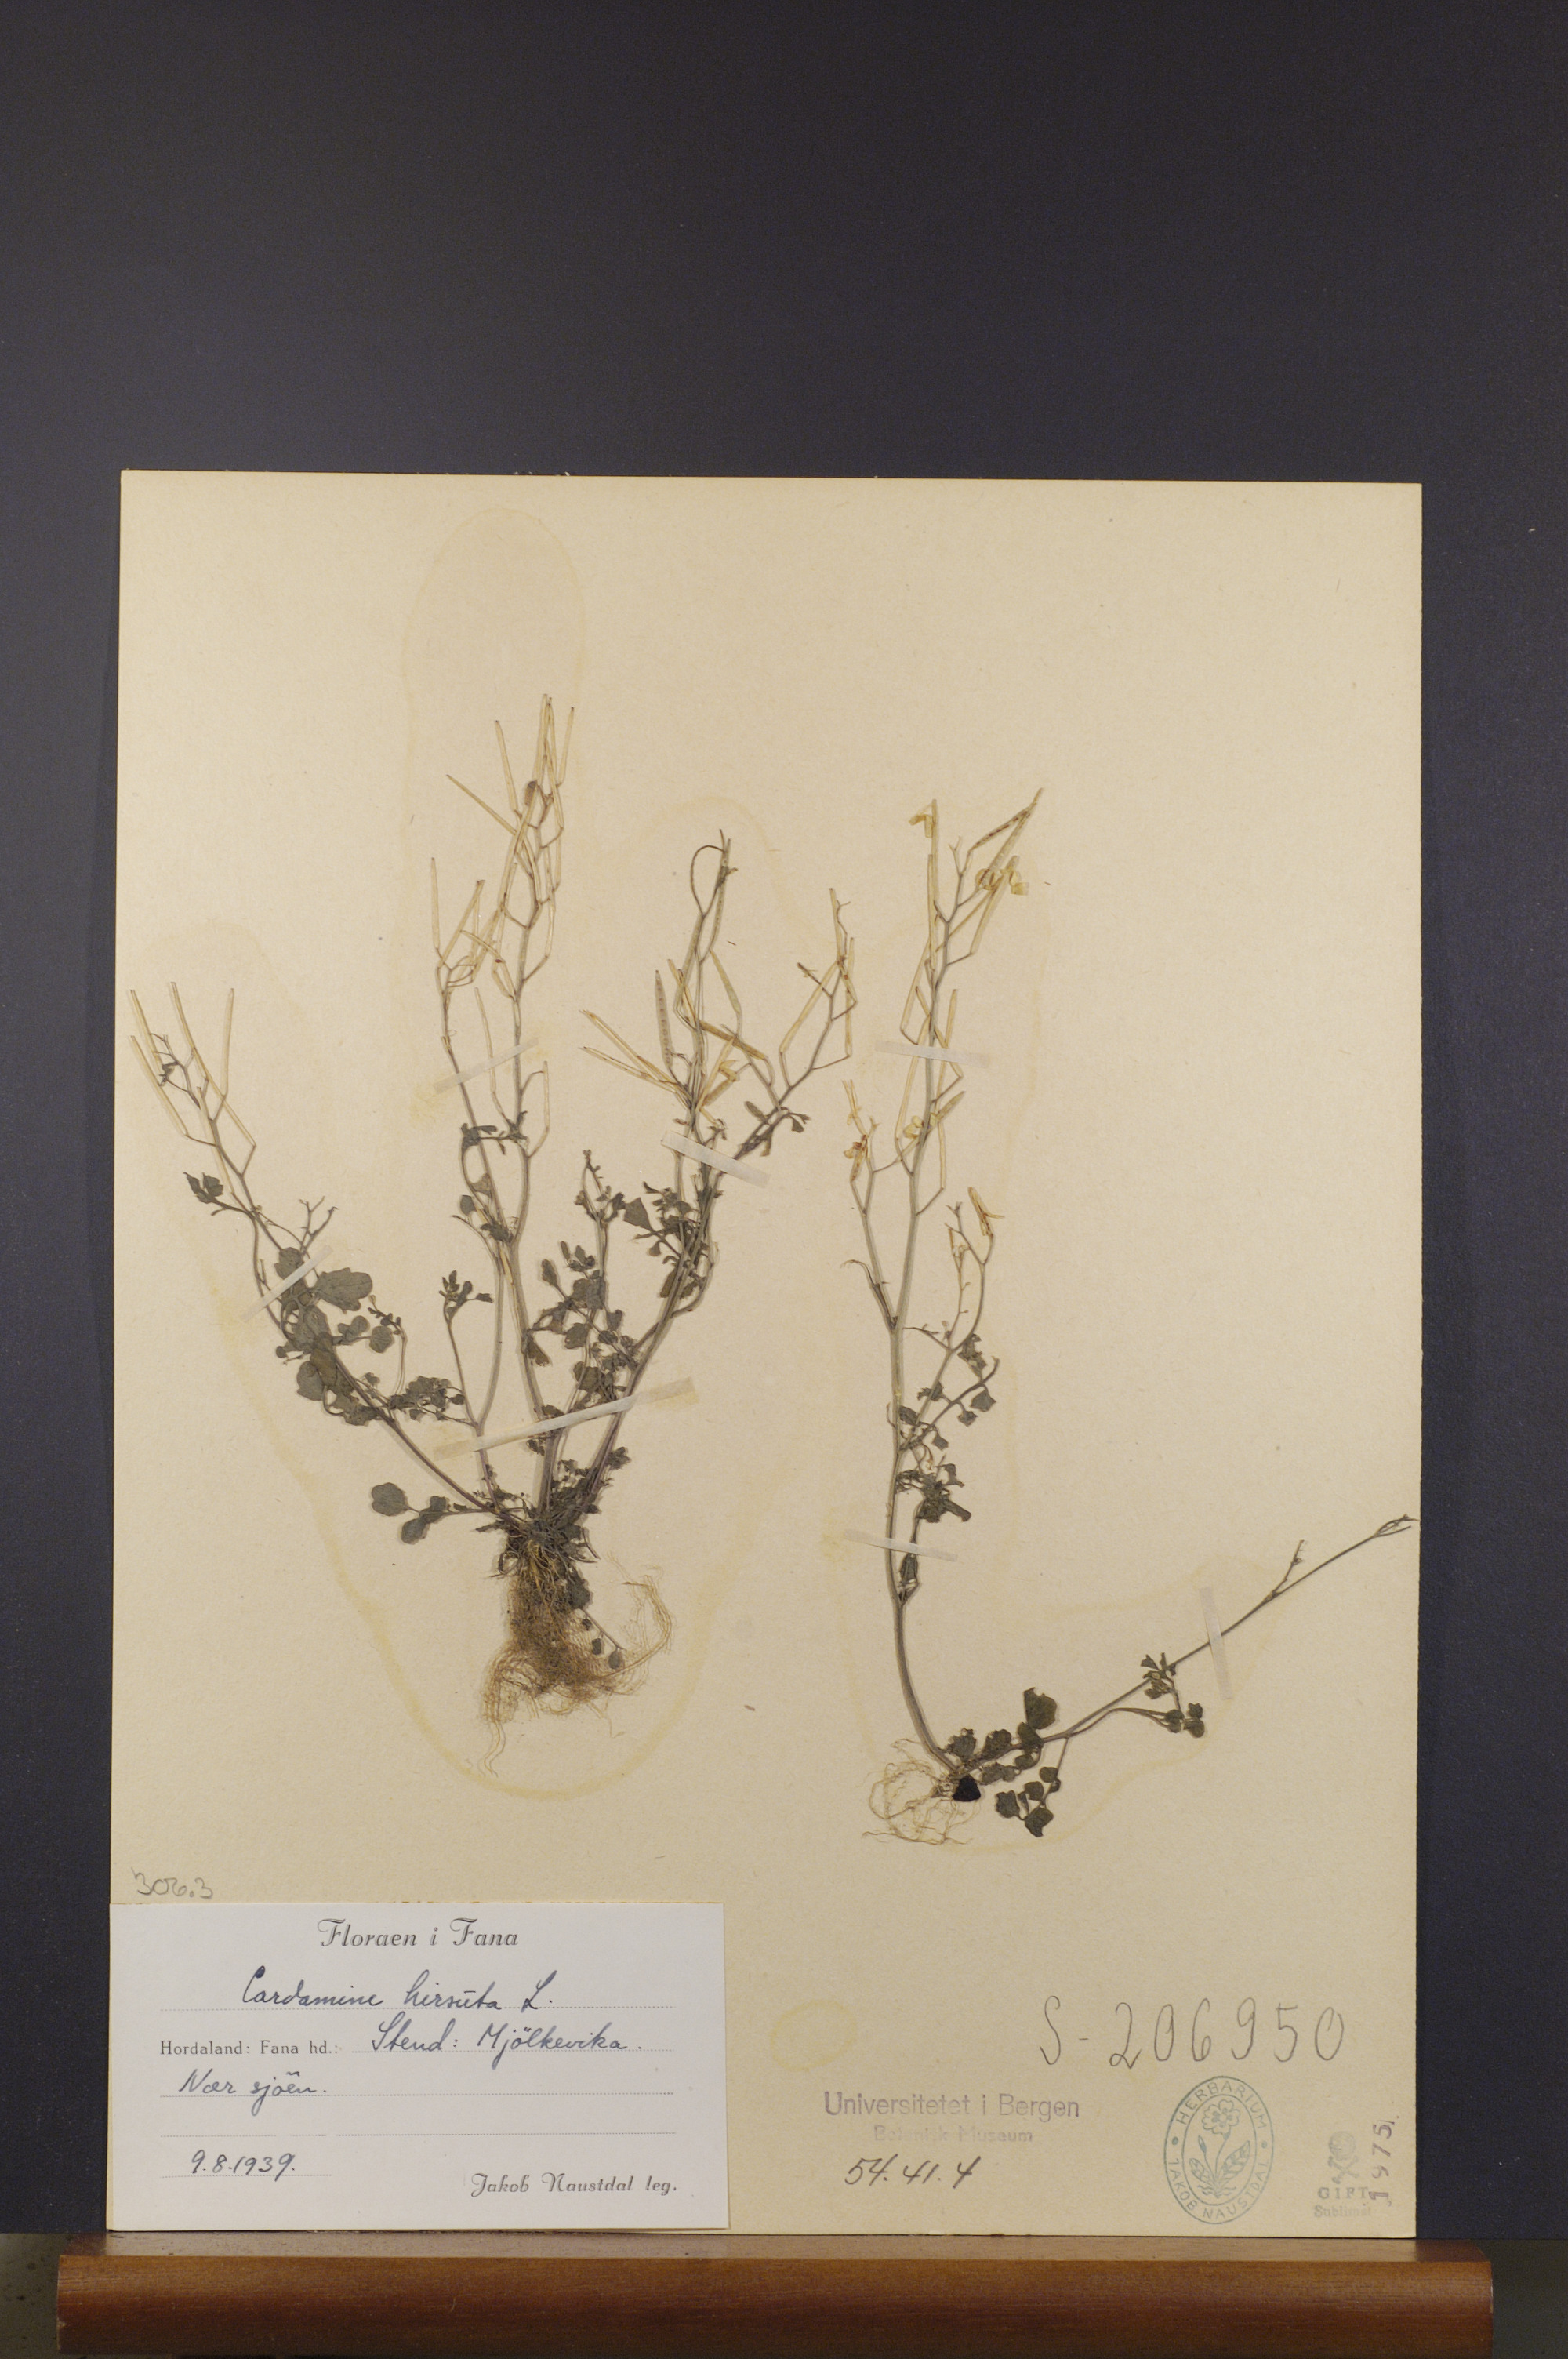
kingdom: Plantae
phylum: Tracheophyta
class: Magnoliopsida
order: Brassicales
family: Brassicaceae
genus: Cardamine
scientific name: Cardamine hirsuta
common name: Hairy bittercress
